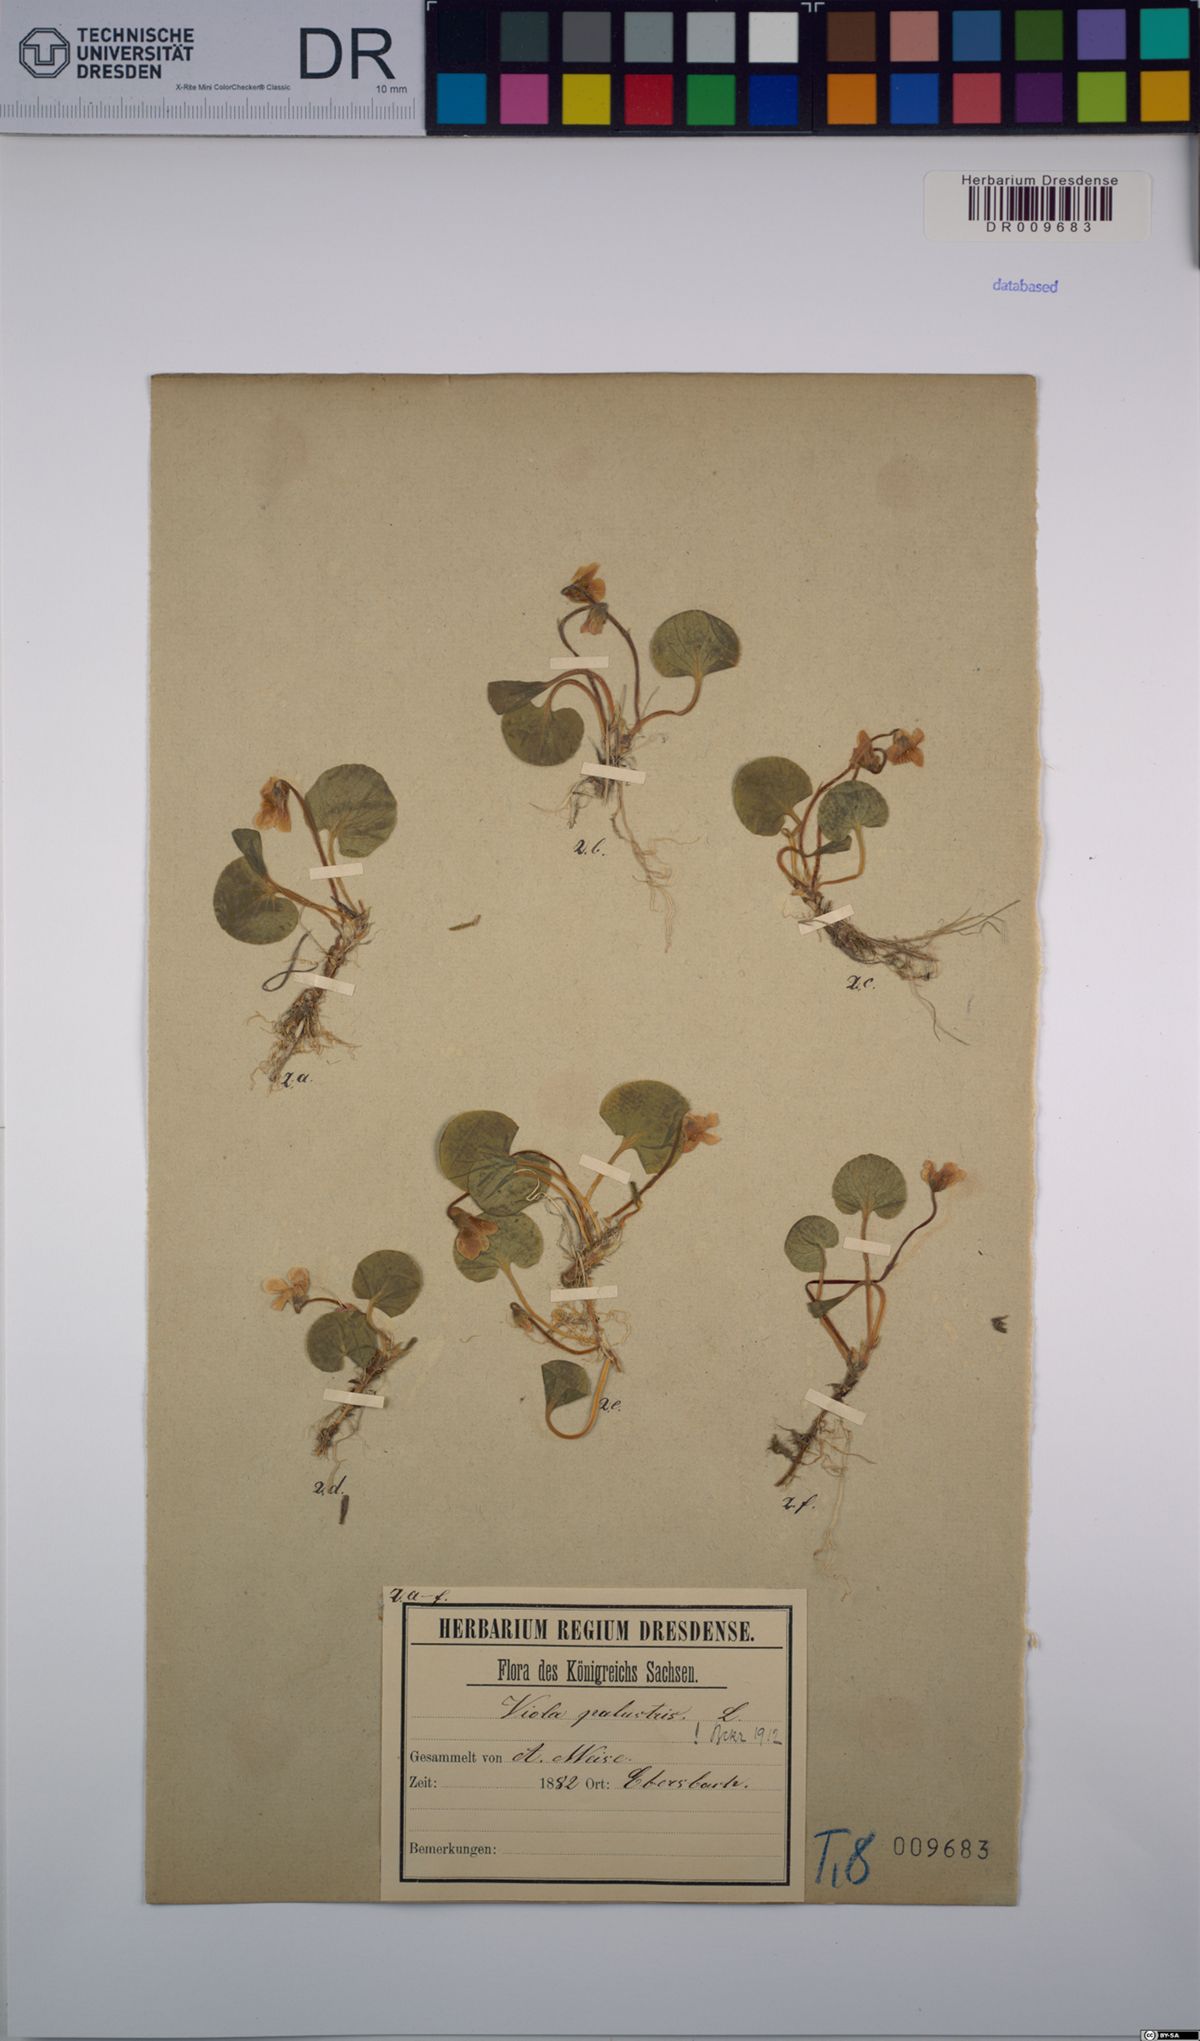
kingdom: Plantae
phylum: Tracheophyta
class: Magnoliopsida
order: Malpighiales
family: Violaceae
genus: Viola
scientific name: Viola palustris
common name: Marsh violet
